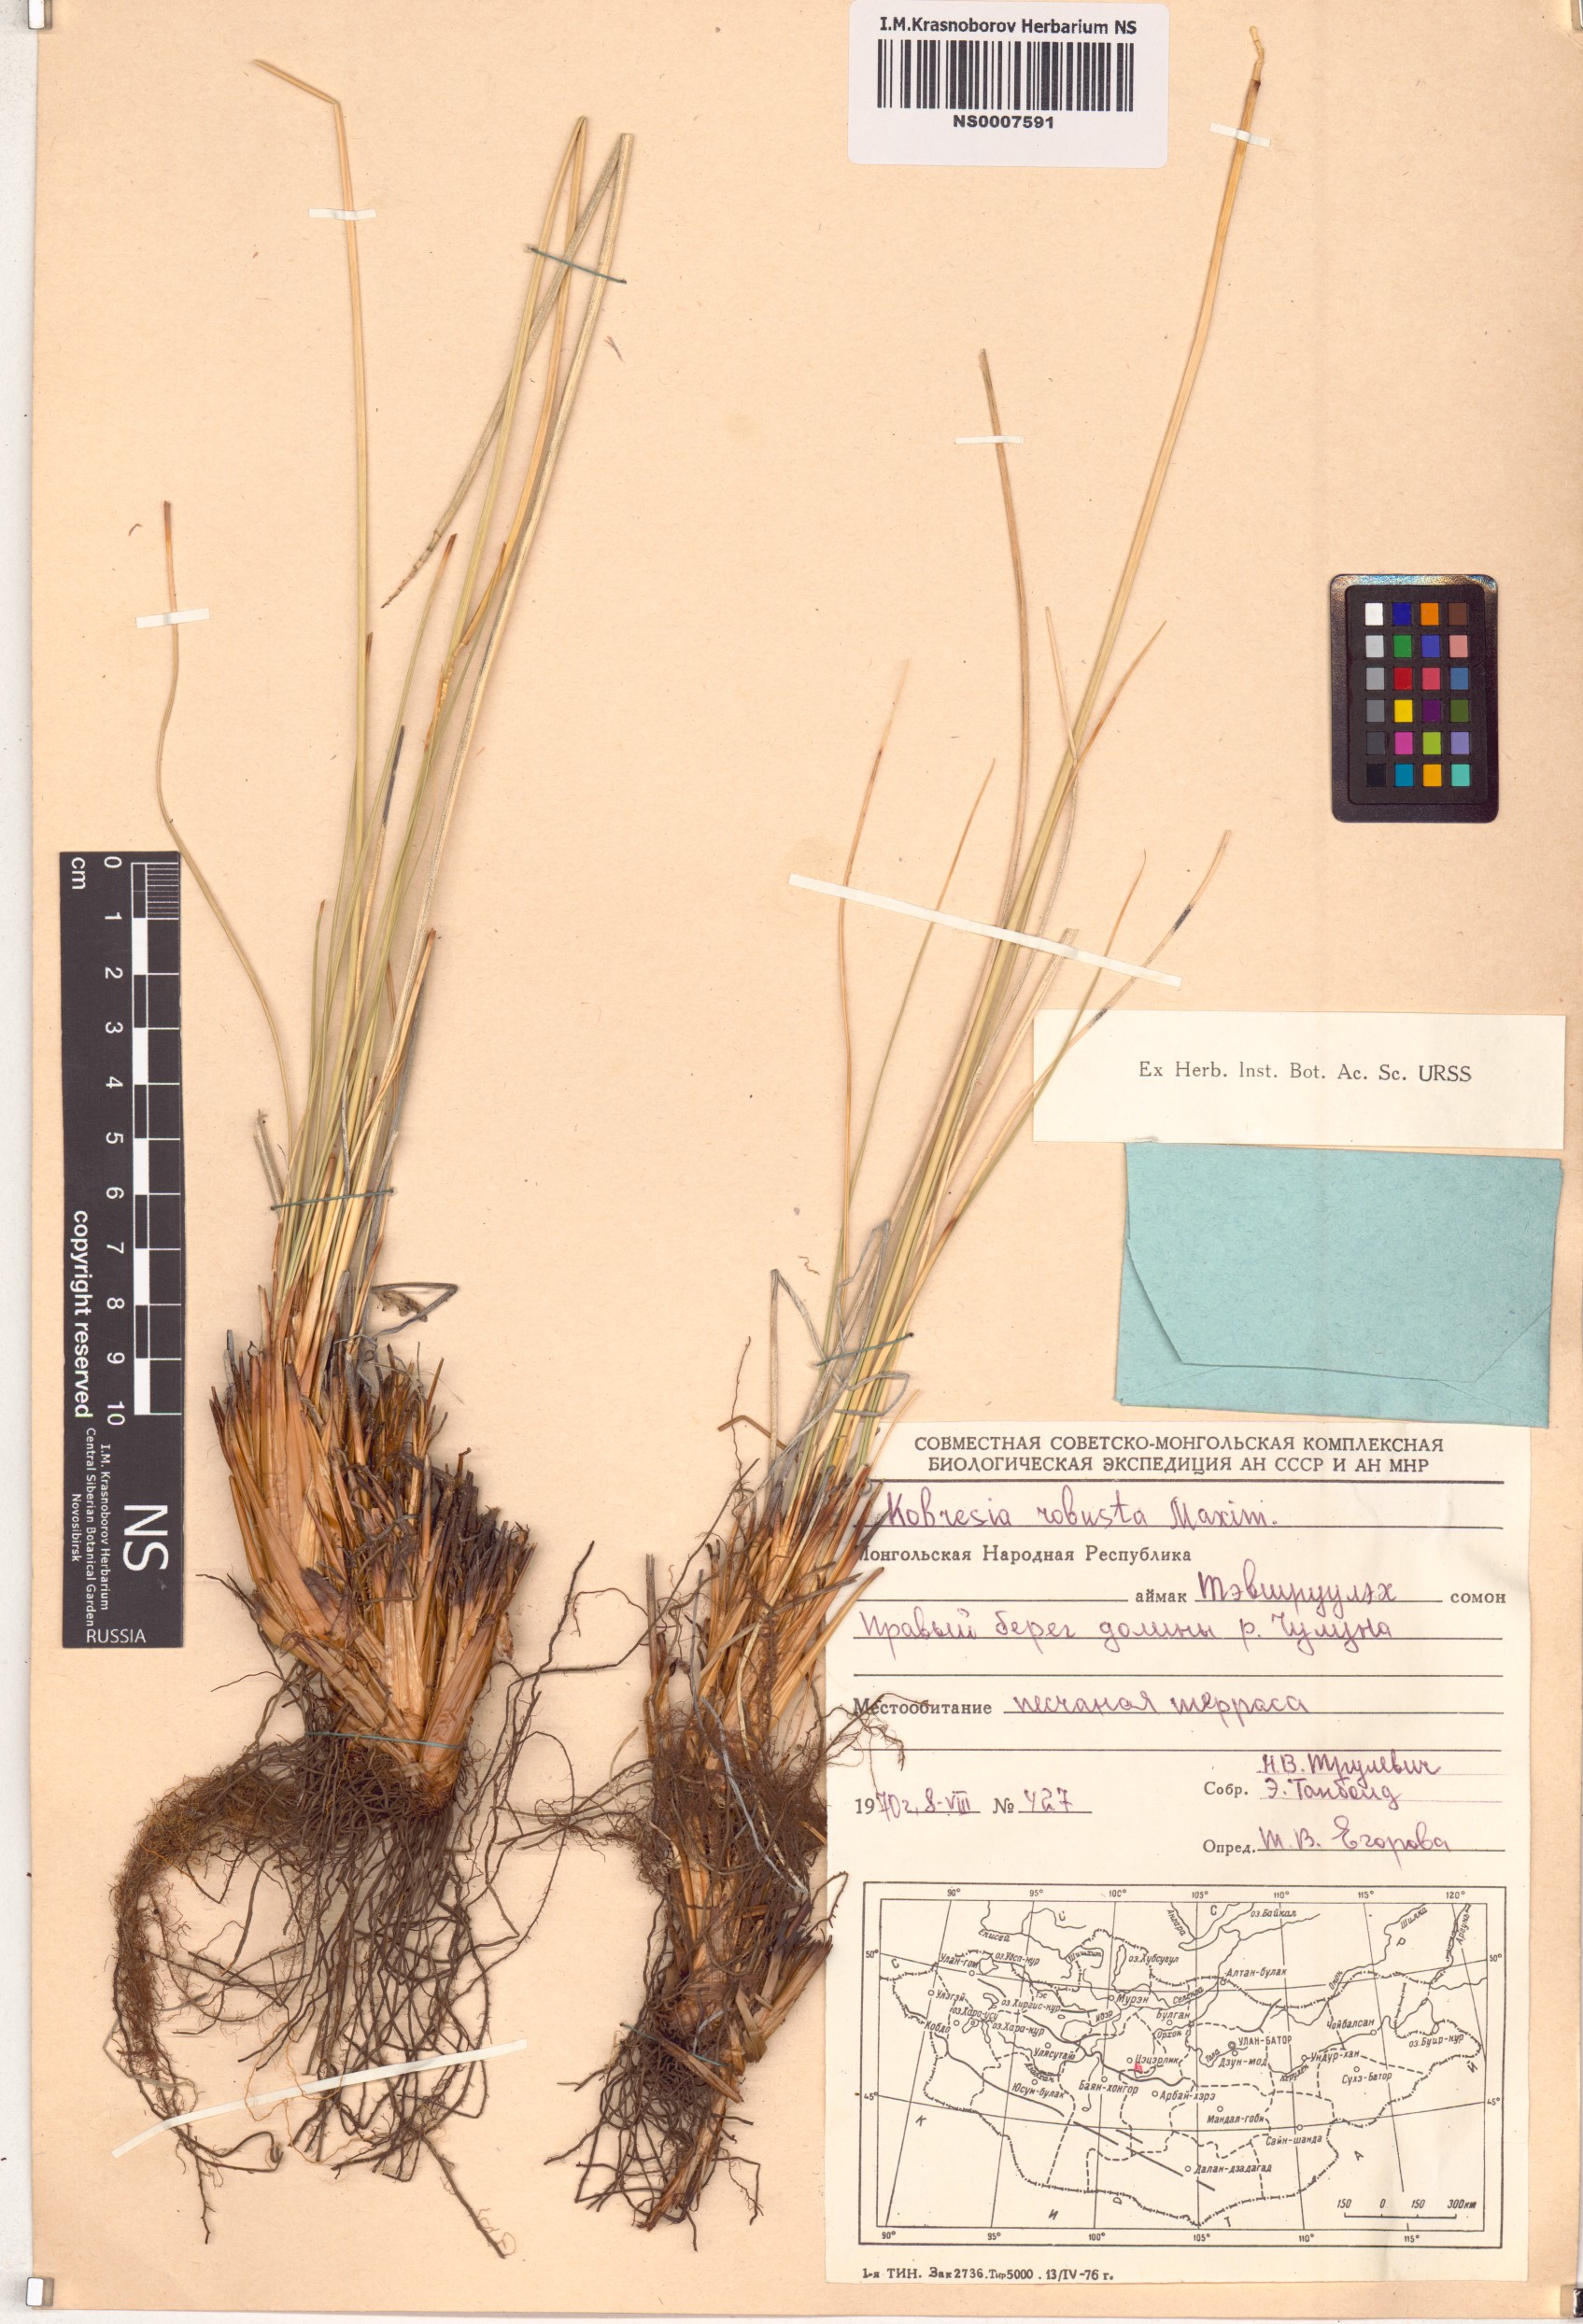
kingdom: Plantae
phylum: Tracheophyta
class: Liliopsida
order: Poales
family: Cyperaceae
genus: Carex
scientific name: Carex sargentiana
